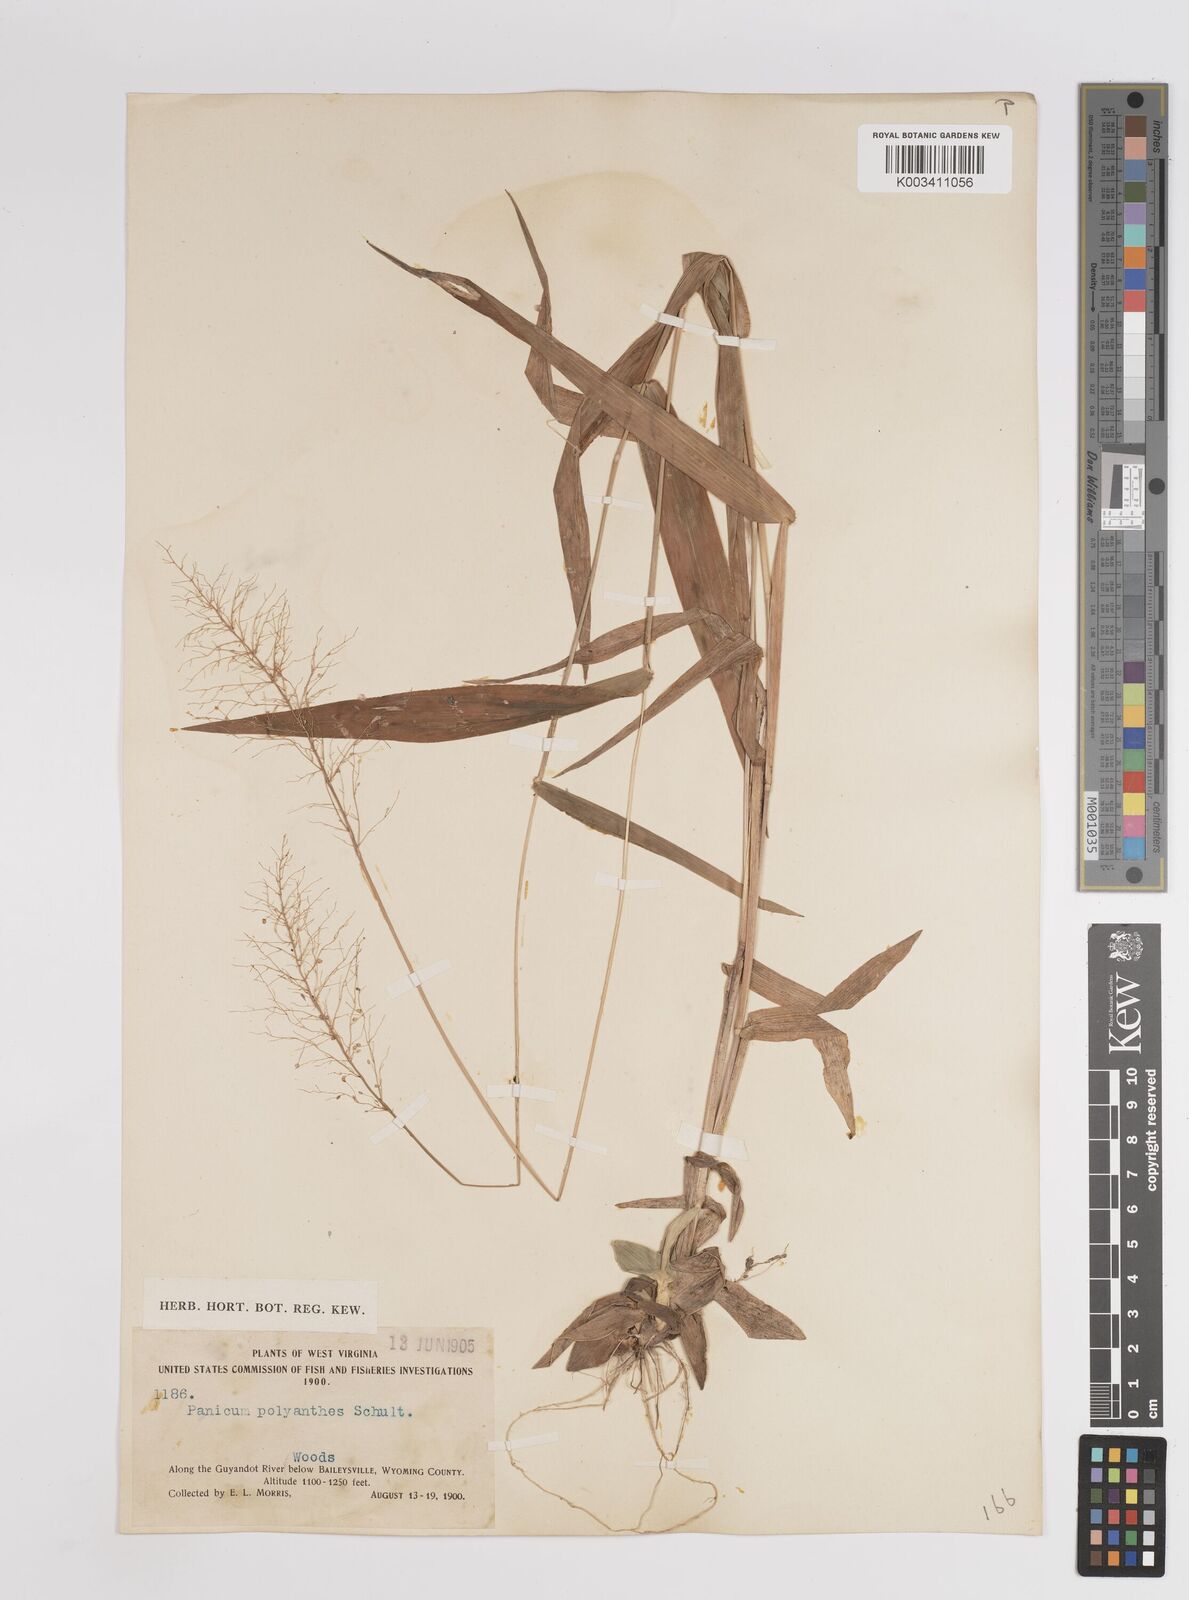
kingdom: Plantae
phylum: Tracheophyta
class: Liliopsida
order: Poales
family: Poaceae
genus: Dichanthelium
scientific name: Dichanthelium polyanthes
